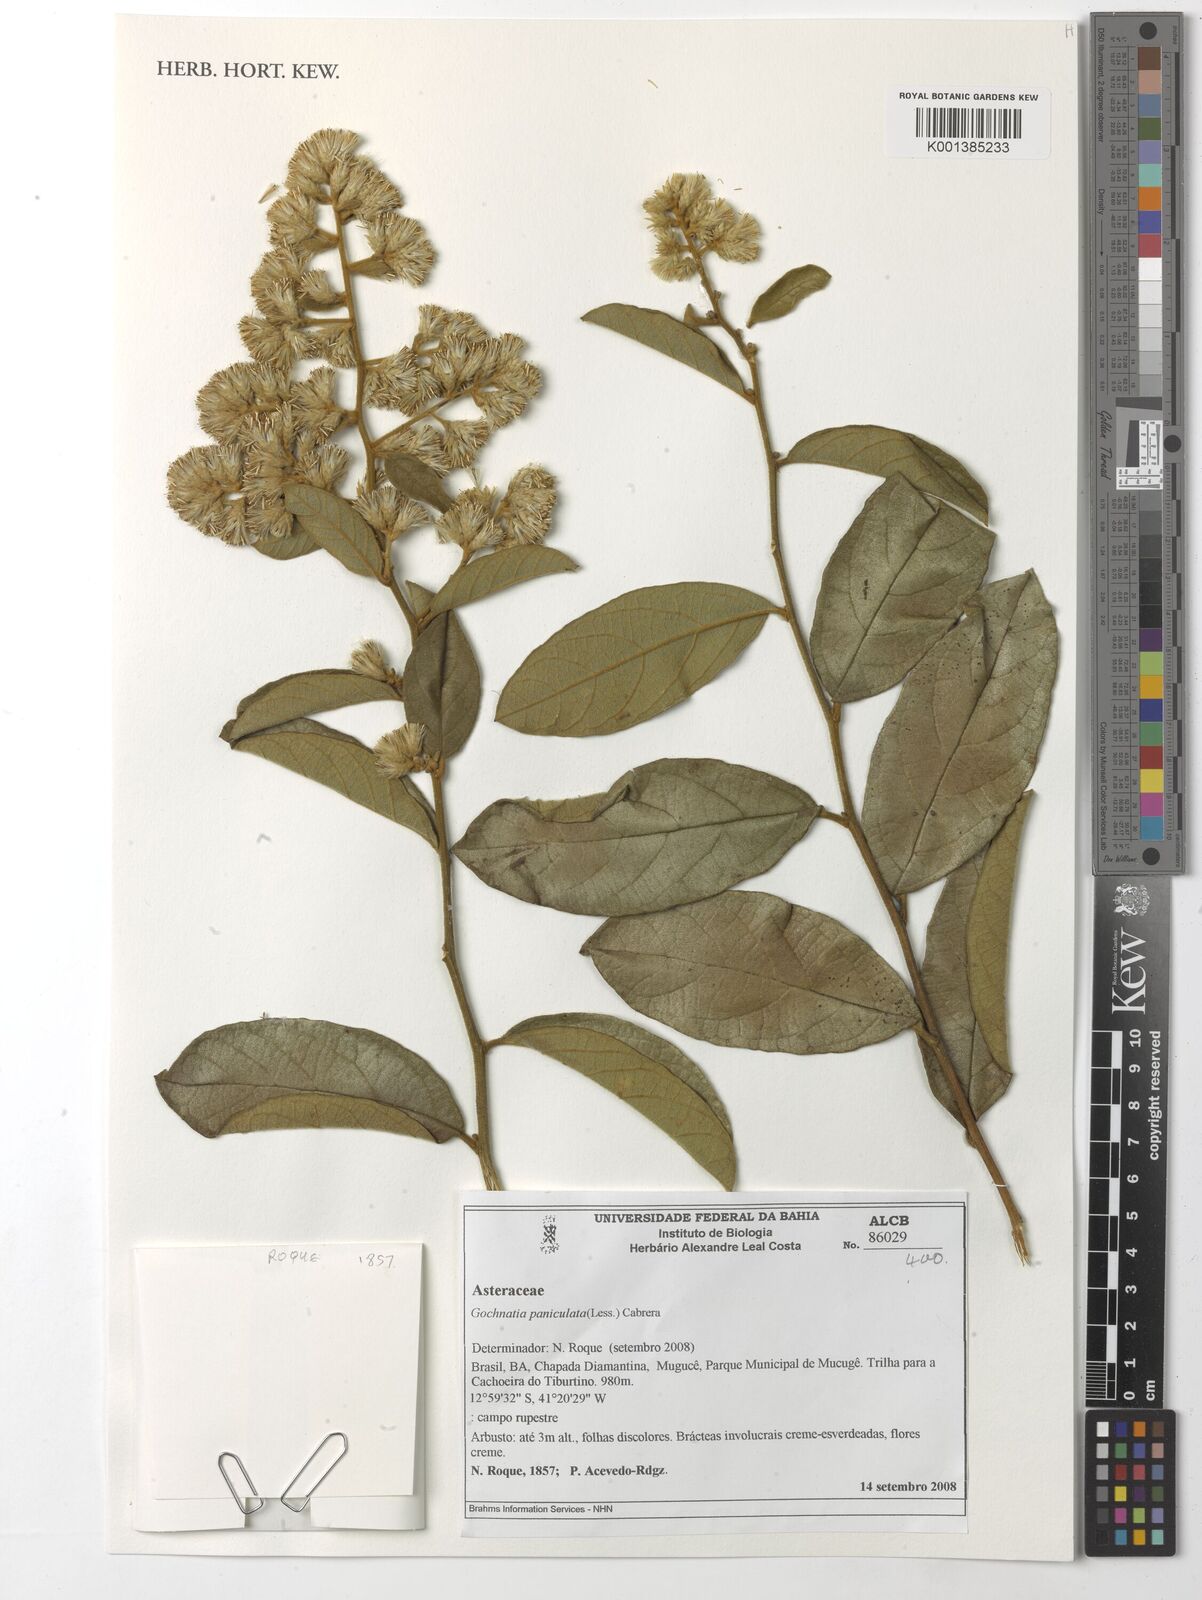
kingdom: Plantae
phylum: Tracheophyta
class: Magnoliopsida
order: Asterales
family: Asteraceae
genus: Moquiniastrum
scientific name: Moquiniastrum paniculatum
